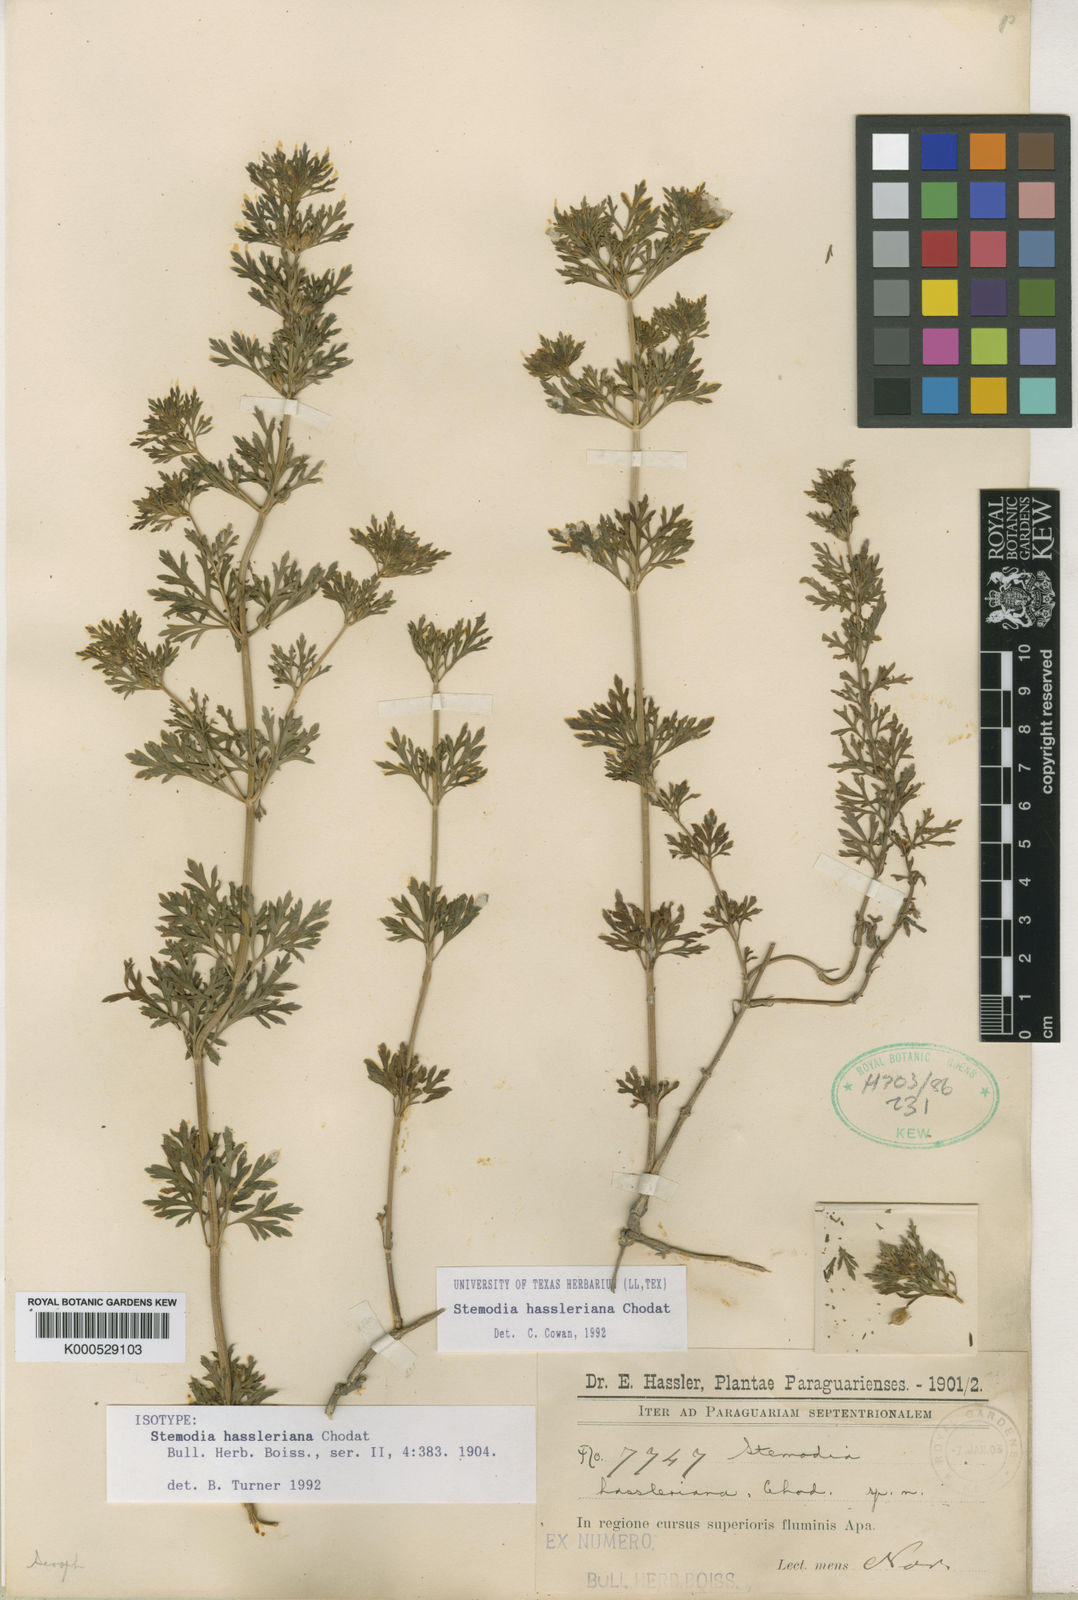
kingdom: Plantae
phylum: Tracheophyta
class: Magnoliopsida
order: Lamiales
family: Plantaginaceae
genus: Stemodia
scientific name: Stemodia hassleriana
